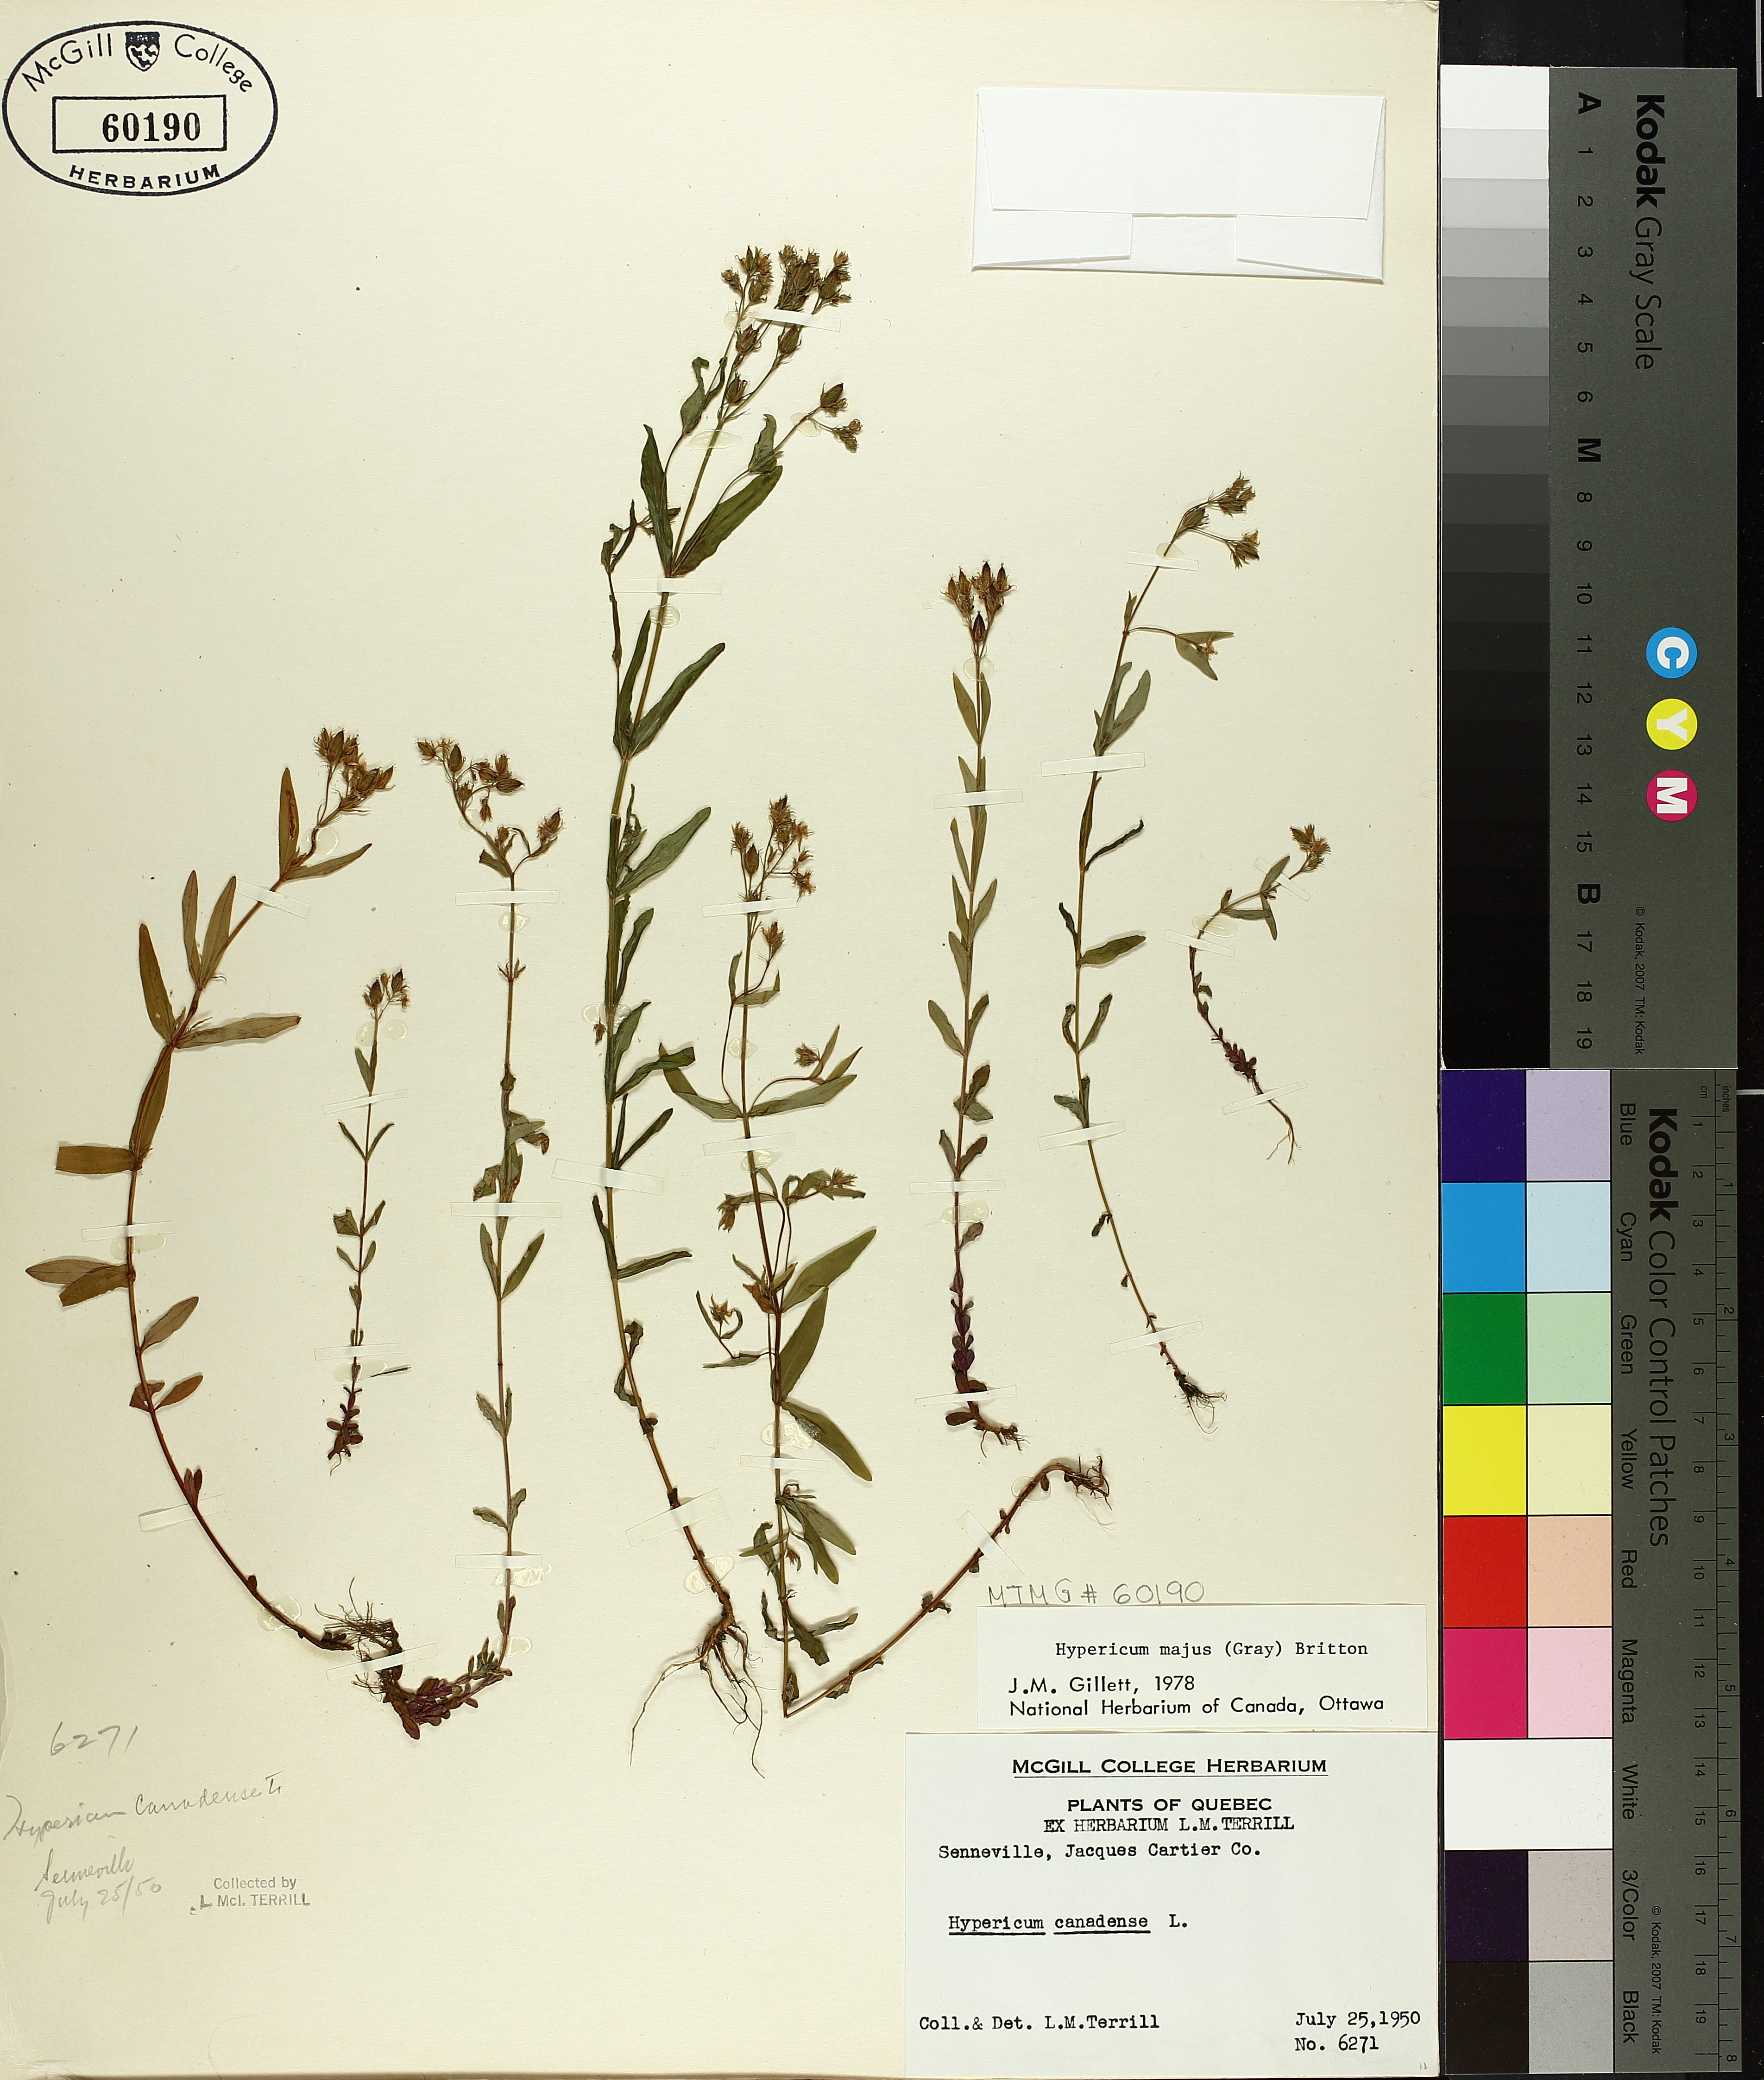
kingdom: Plantae
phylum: Tracheophyta
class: Magnoliopsida
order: Malpighiales
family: Hypericaceae
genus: Hypericum
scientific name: Hypericum majus
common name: Greater canadian st. john's-wort
